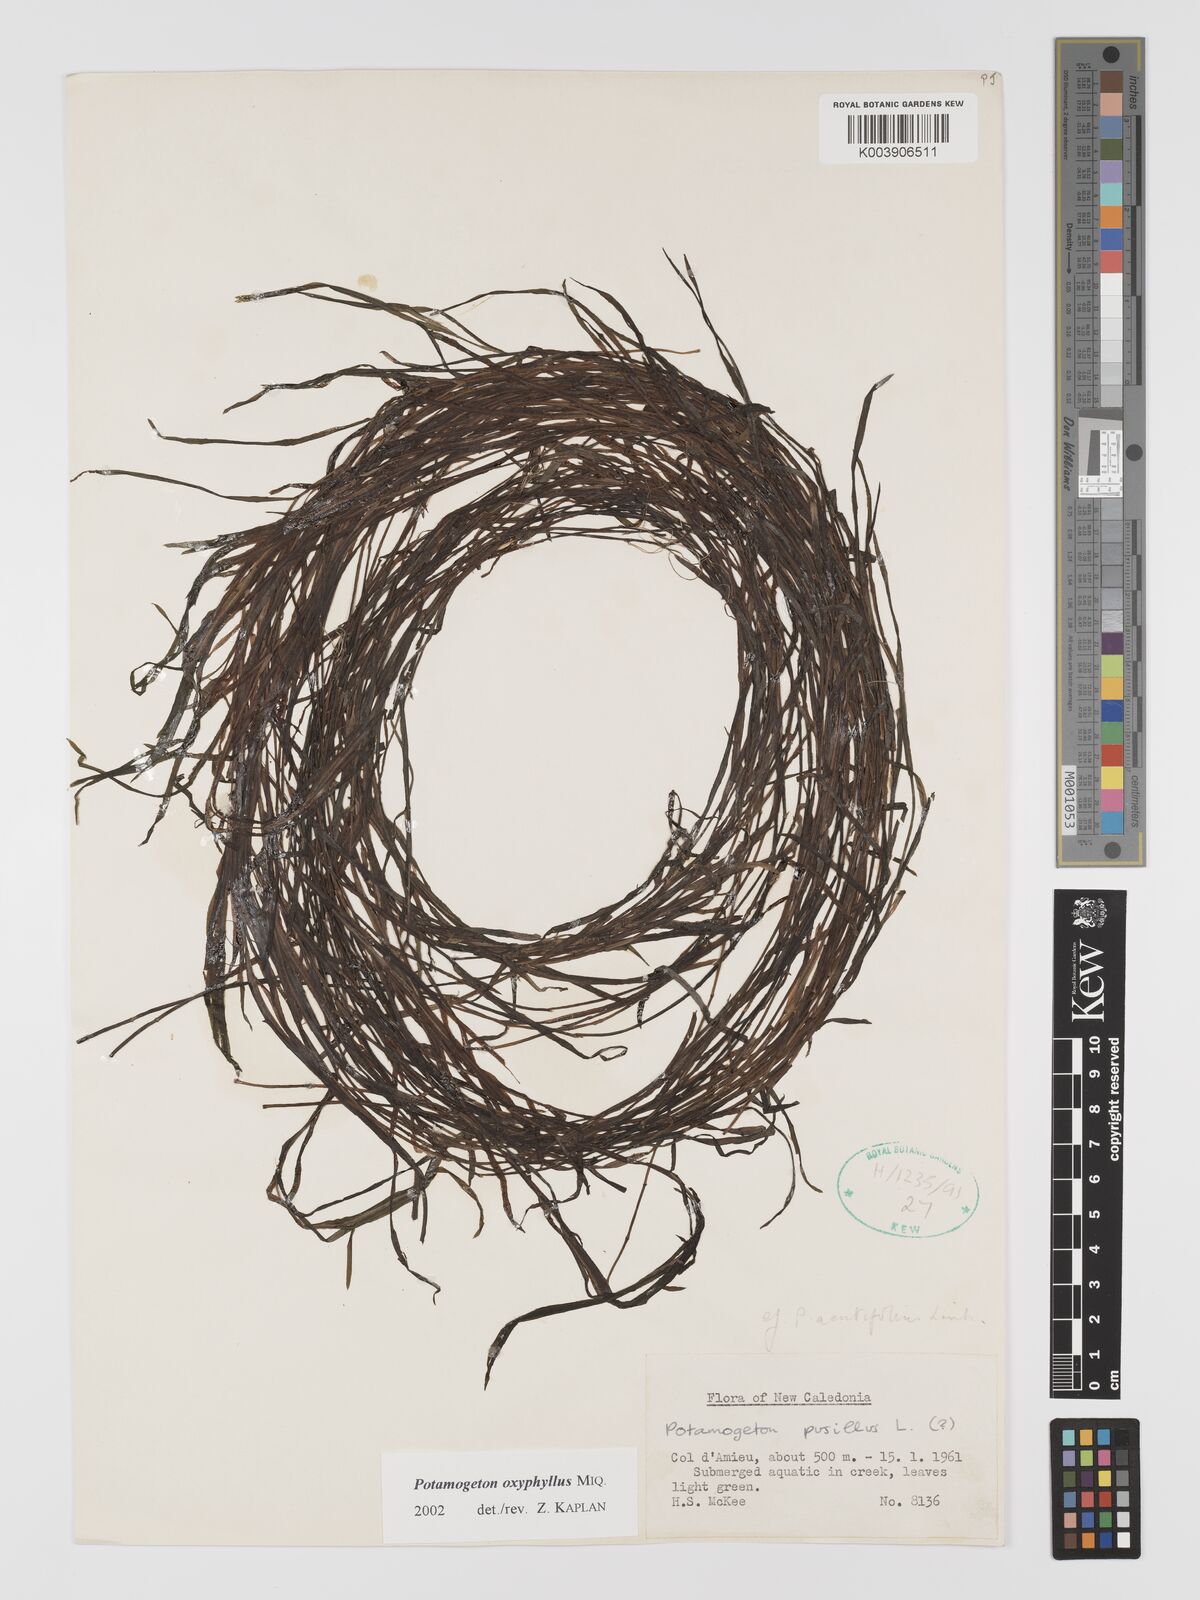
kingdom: Plantae
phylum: Tracheophyta
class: Liliopsida
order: Alismatales
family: Potamogetonaceae
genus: Potamogeton
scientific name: Potamogeton oxyphyllus
